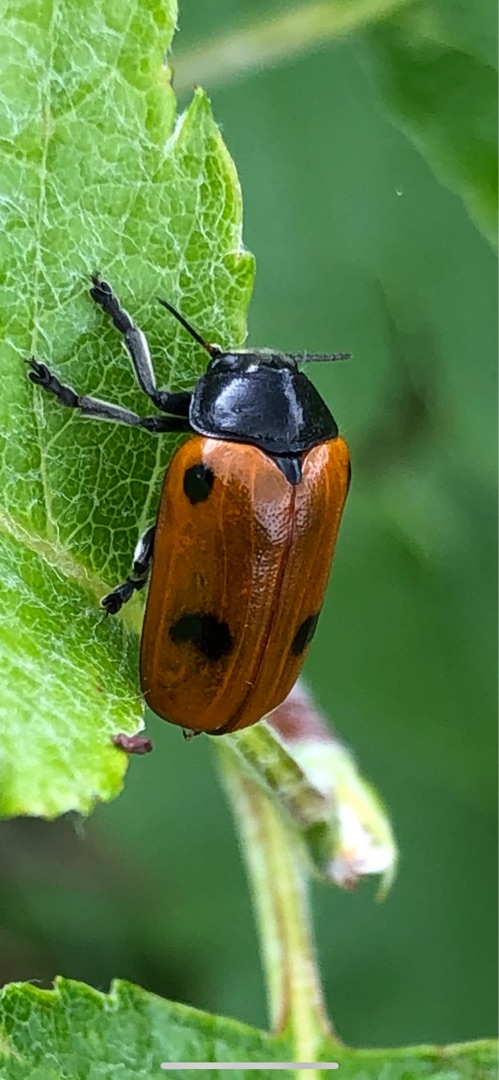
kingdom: Animalia
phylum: Arthropoda
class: Insecta
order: Coleoptera
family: Chrysomelidae
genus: Clytra
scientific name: Clytra quadripunctata
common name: Myrebladbille
